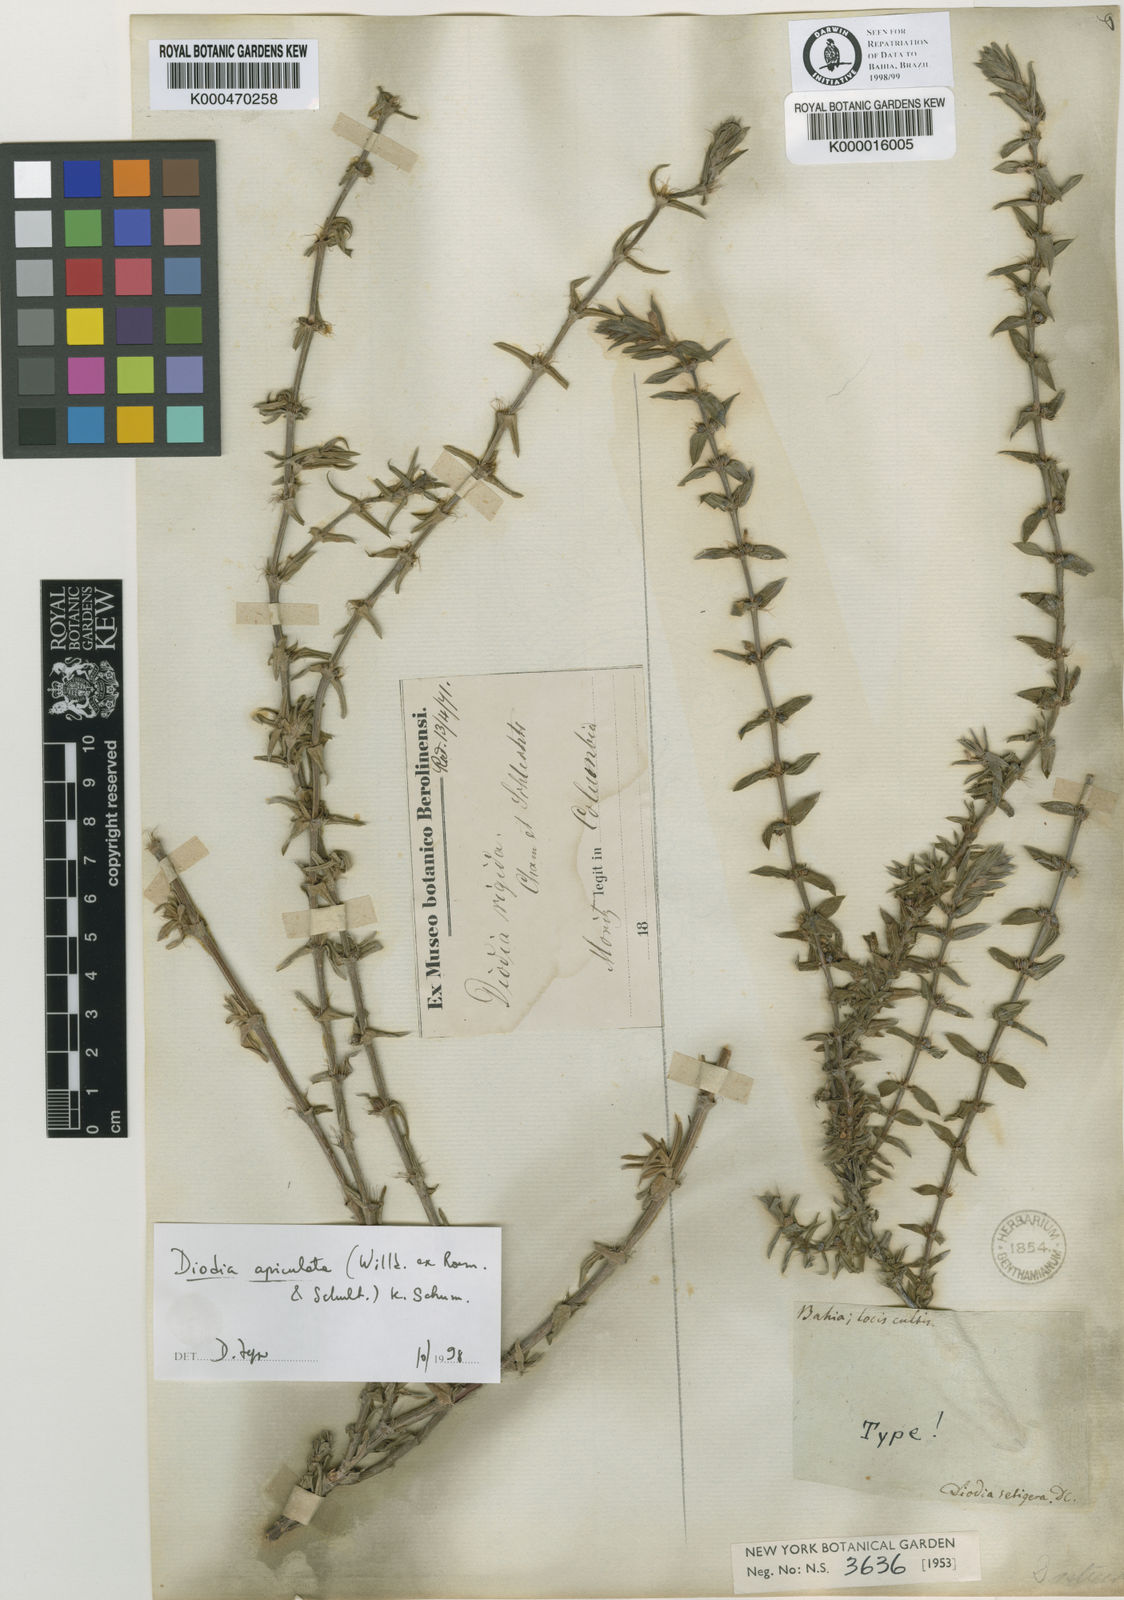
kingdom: Plantae
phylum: Tracheophyta
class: Magnoliopsida
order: Gentianales
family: Rubiaceae
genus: Hexasepalum
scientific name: Hexasepalum apiculatum
